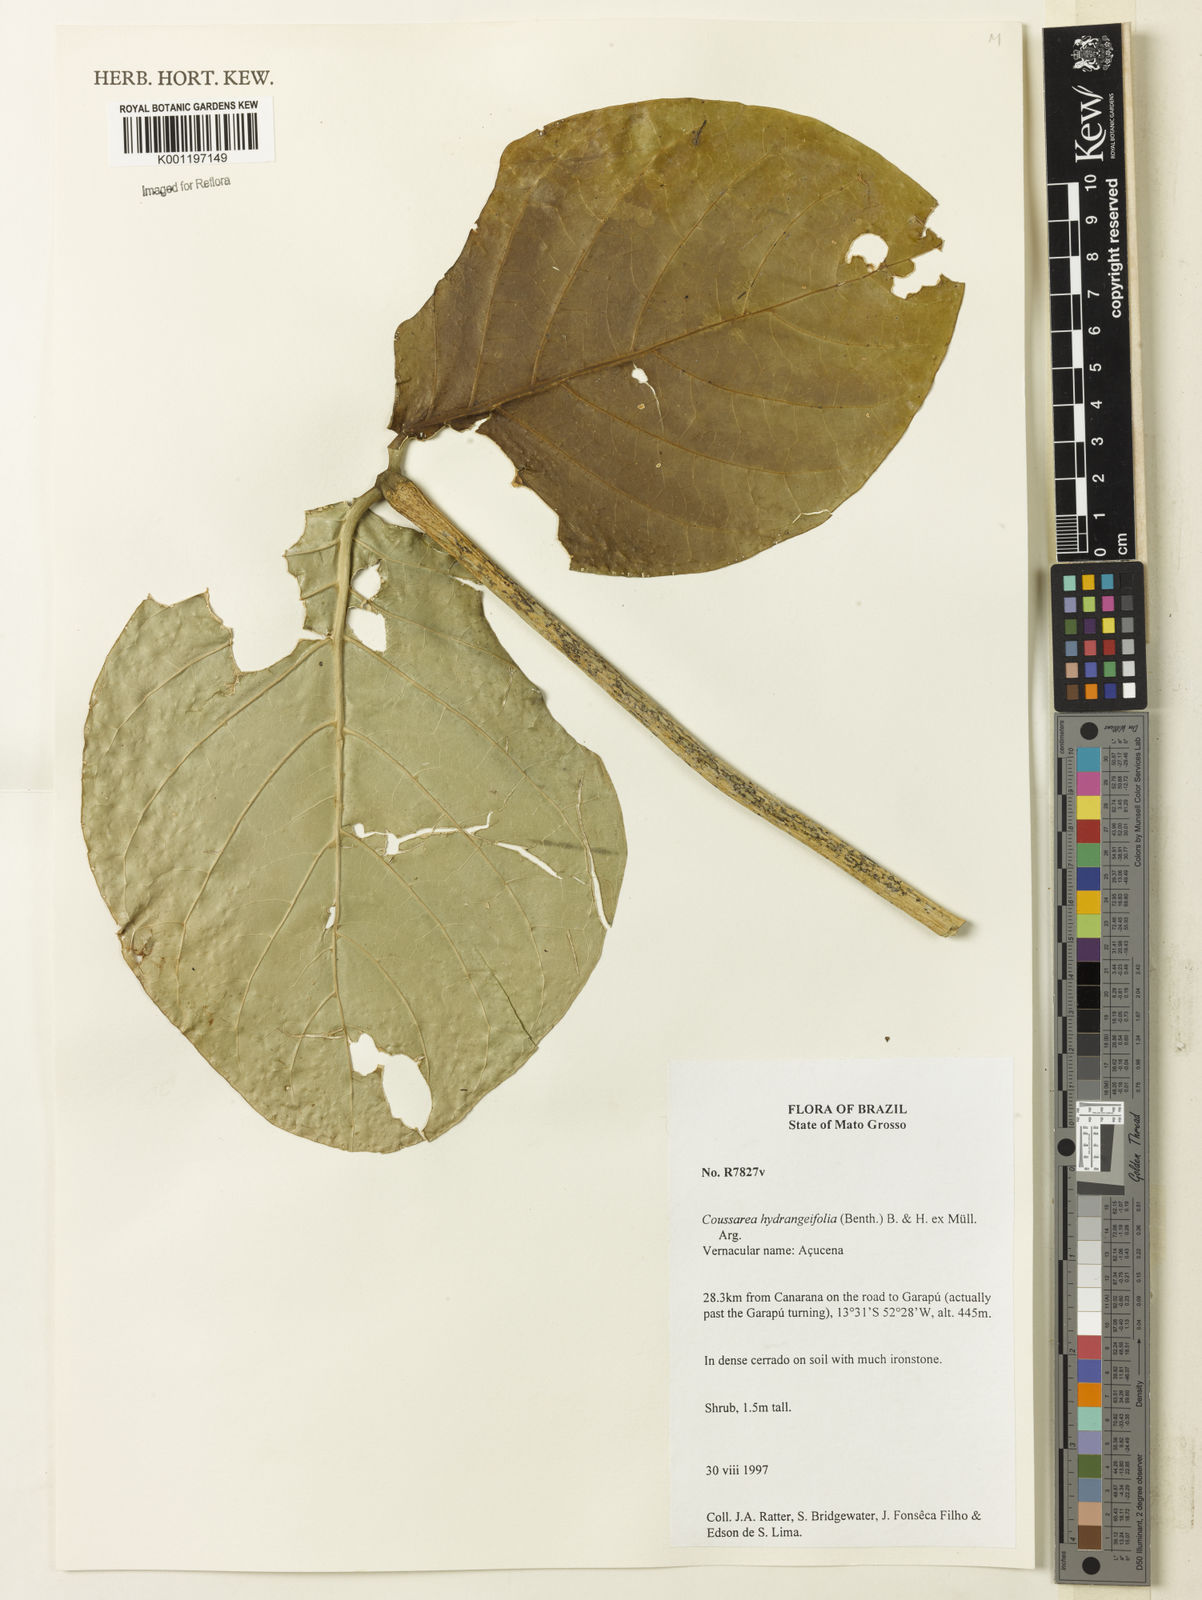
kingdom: Plantae
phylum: Tracheophyta
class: Magnoliopsida
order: Gentianales
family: Rubiaceae
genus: Coussarea
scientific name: Coussarea
